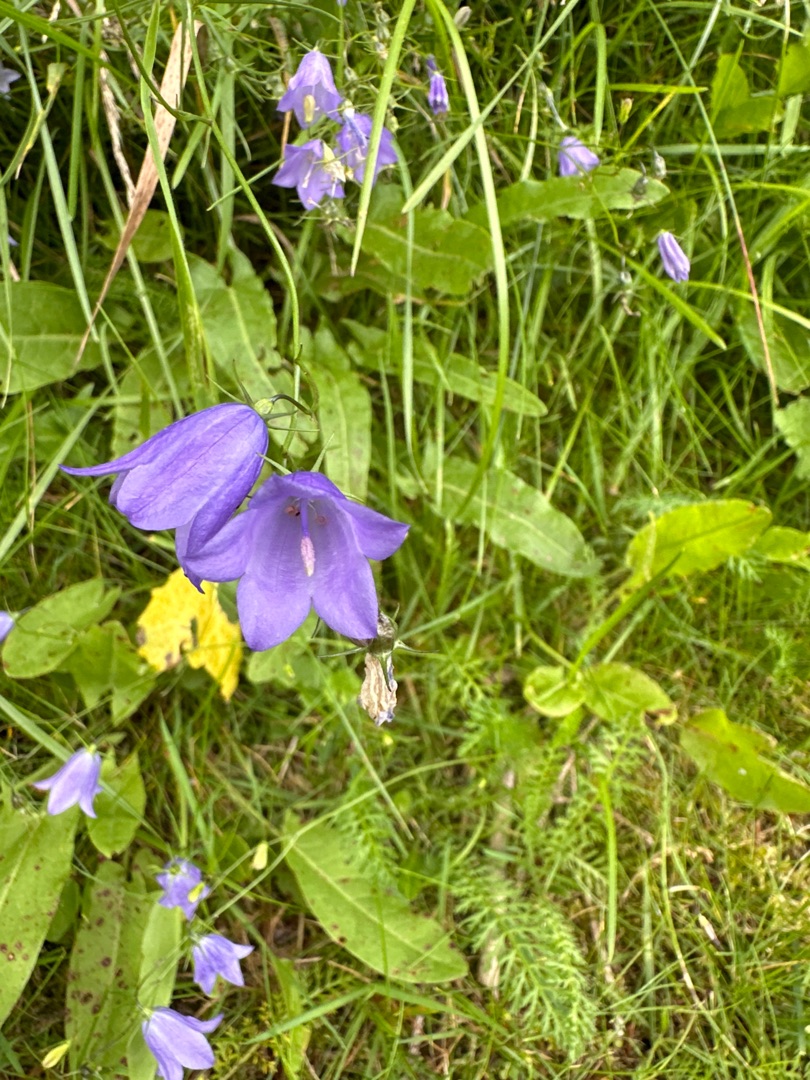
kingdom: Plantae
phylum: Tracheophyta
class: Magnoliopsida
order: Asterales
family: Campanulaceae
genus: Campanula
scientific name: Campanula rotundifolia
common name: Liden klokke
